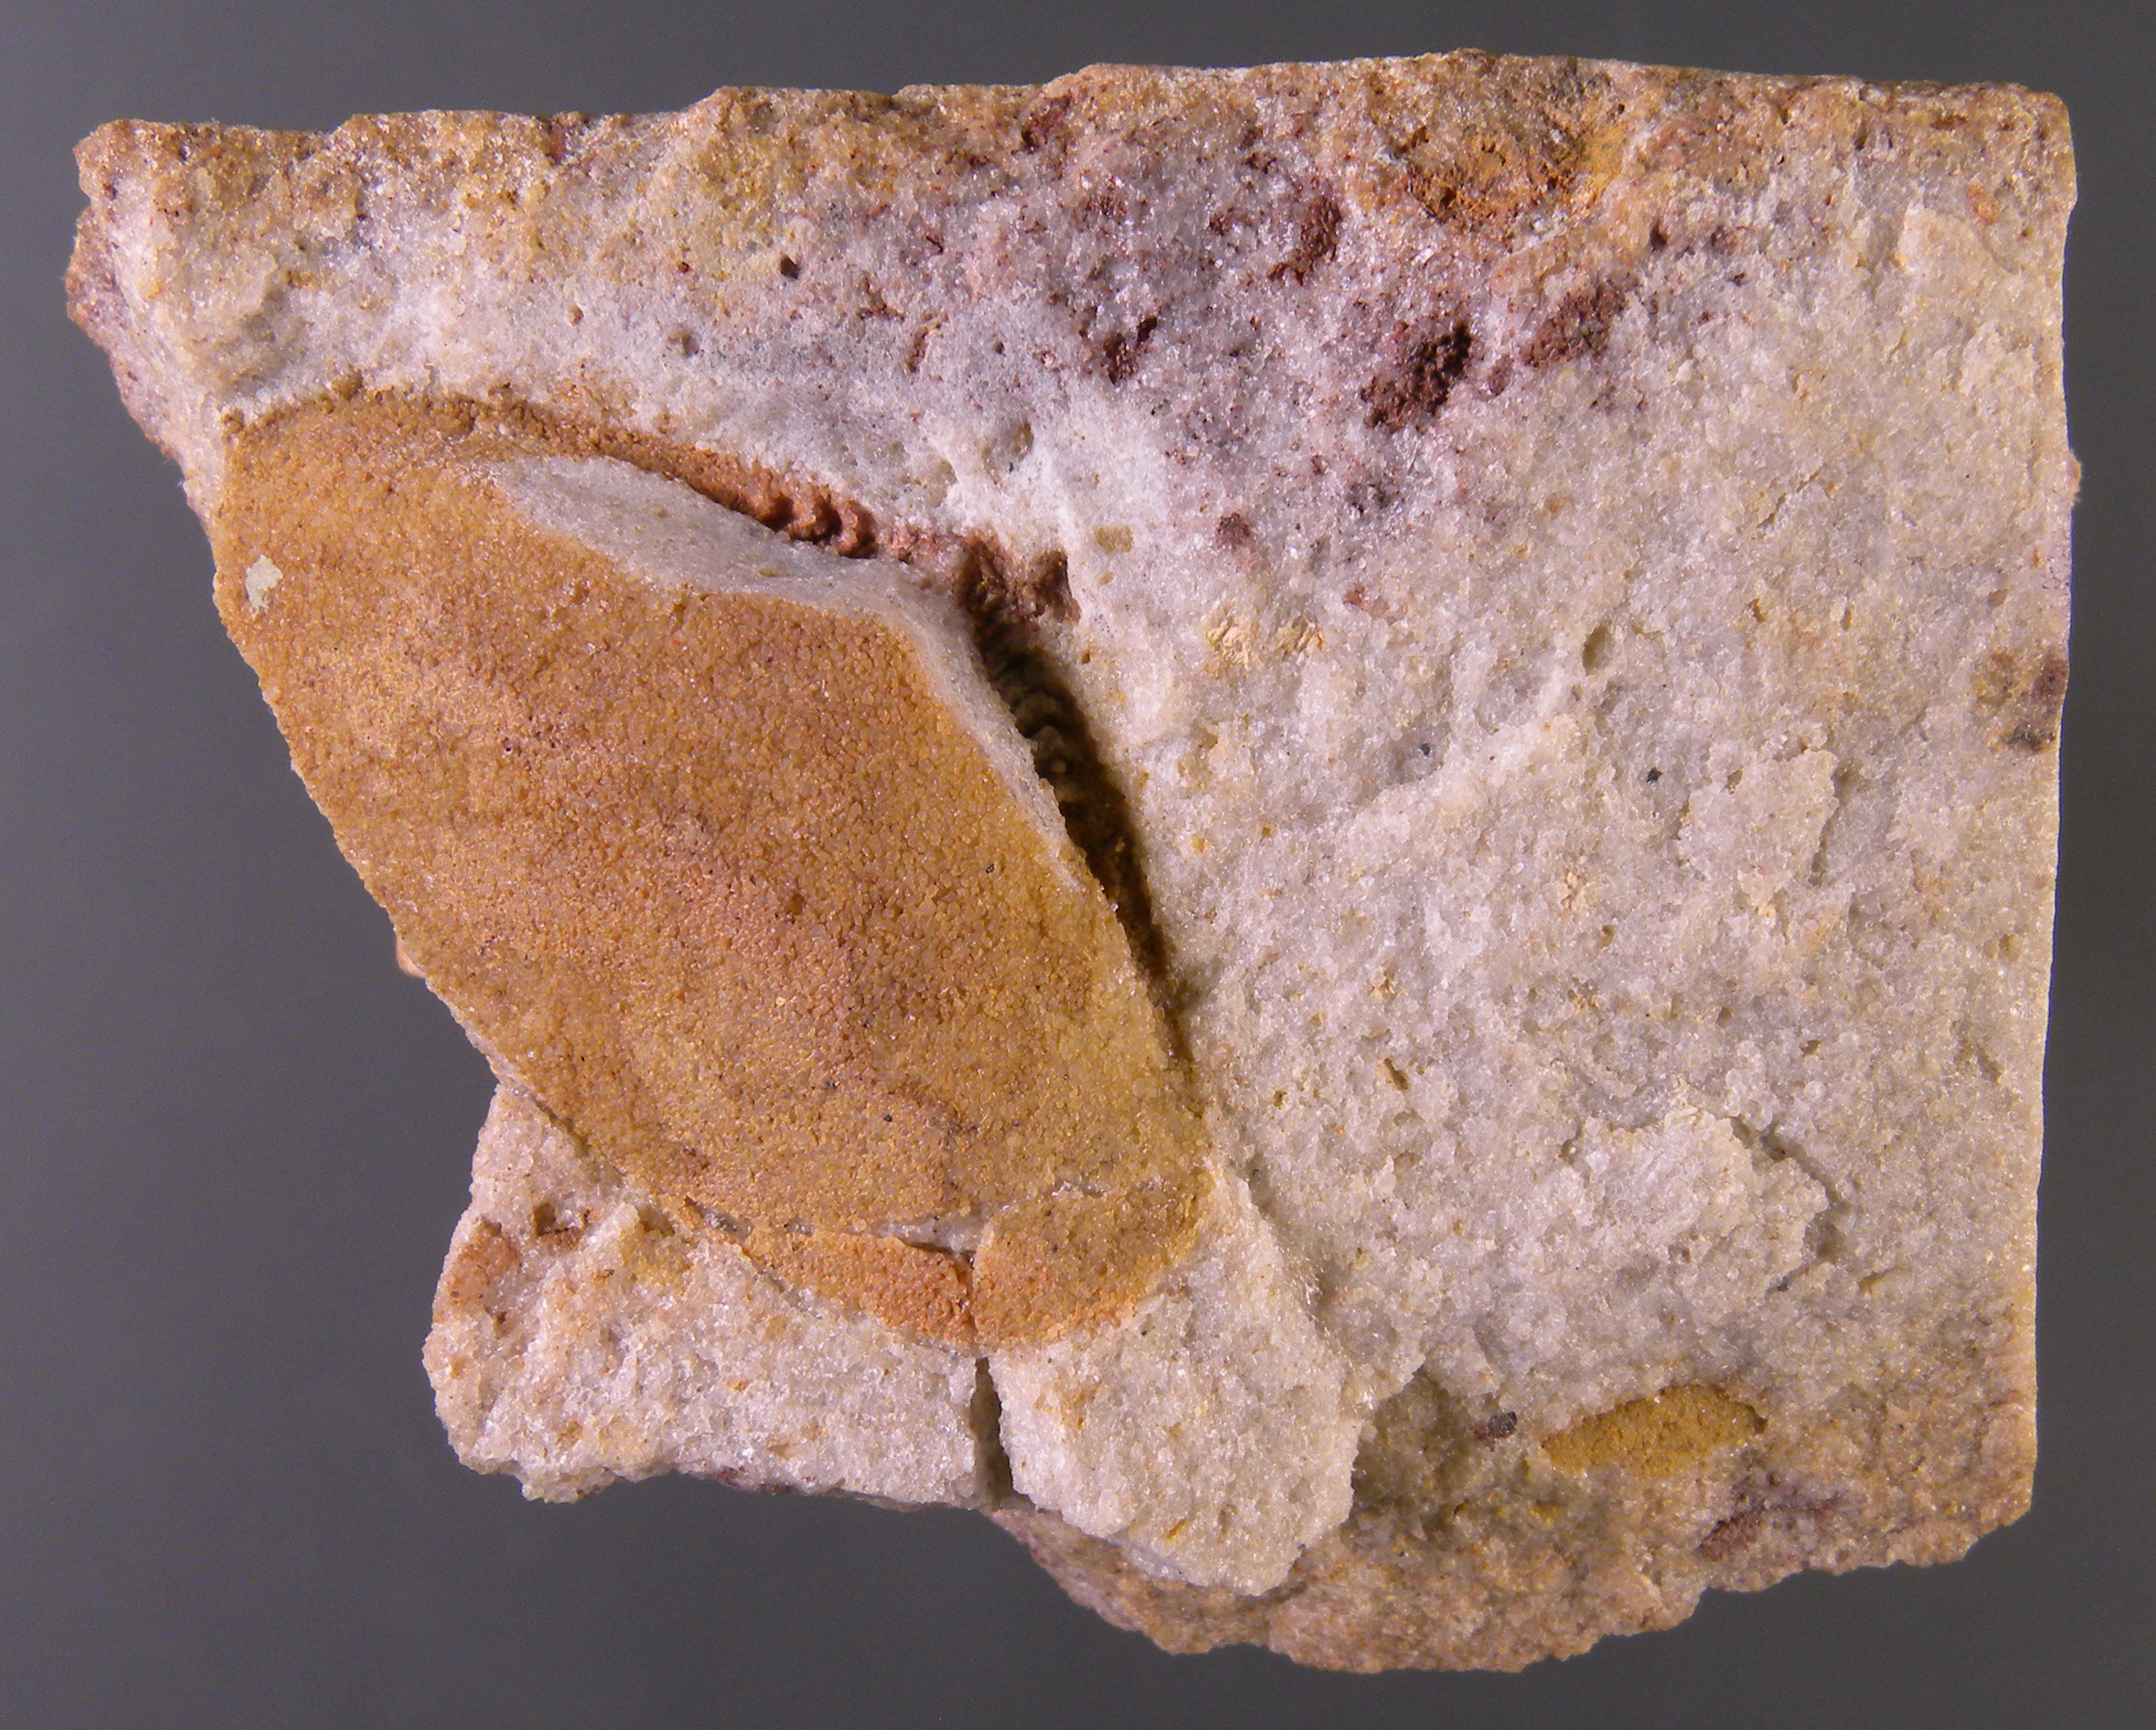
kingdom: Animalia
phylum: Mollusca
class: Bivalvia
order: Nuculanida
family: Nuculanidae
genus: Phestia
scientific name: Phestia
